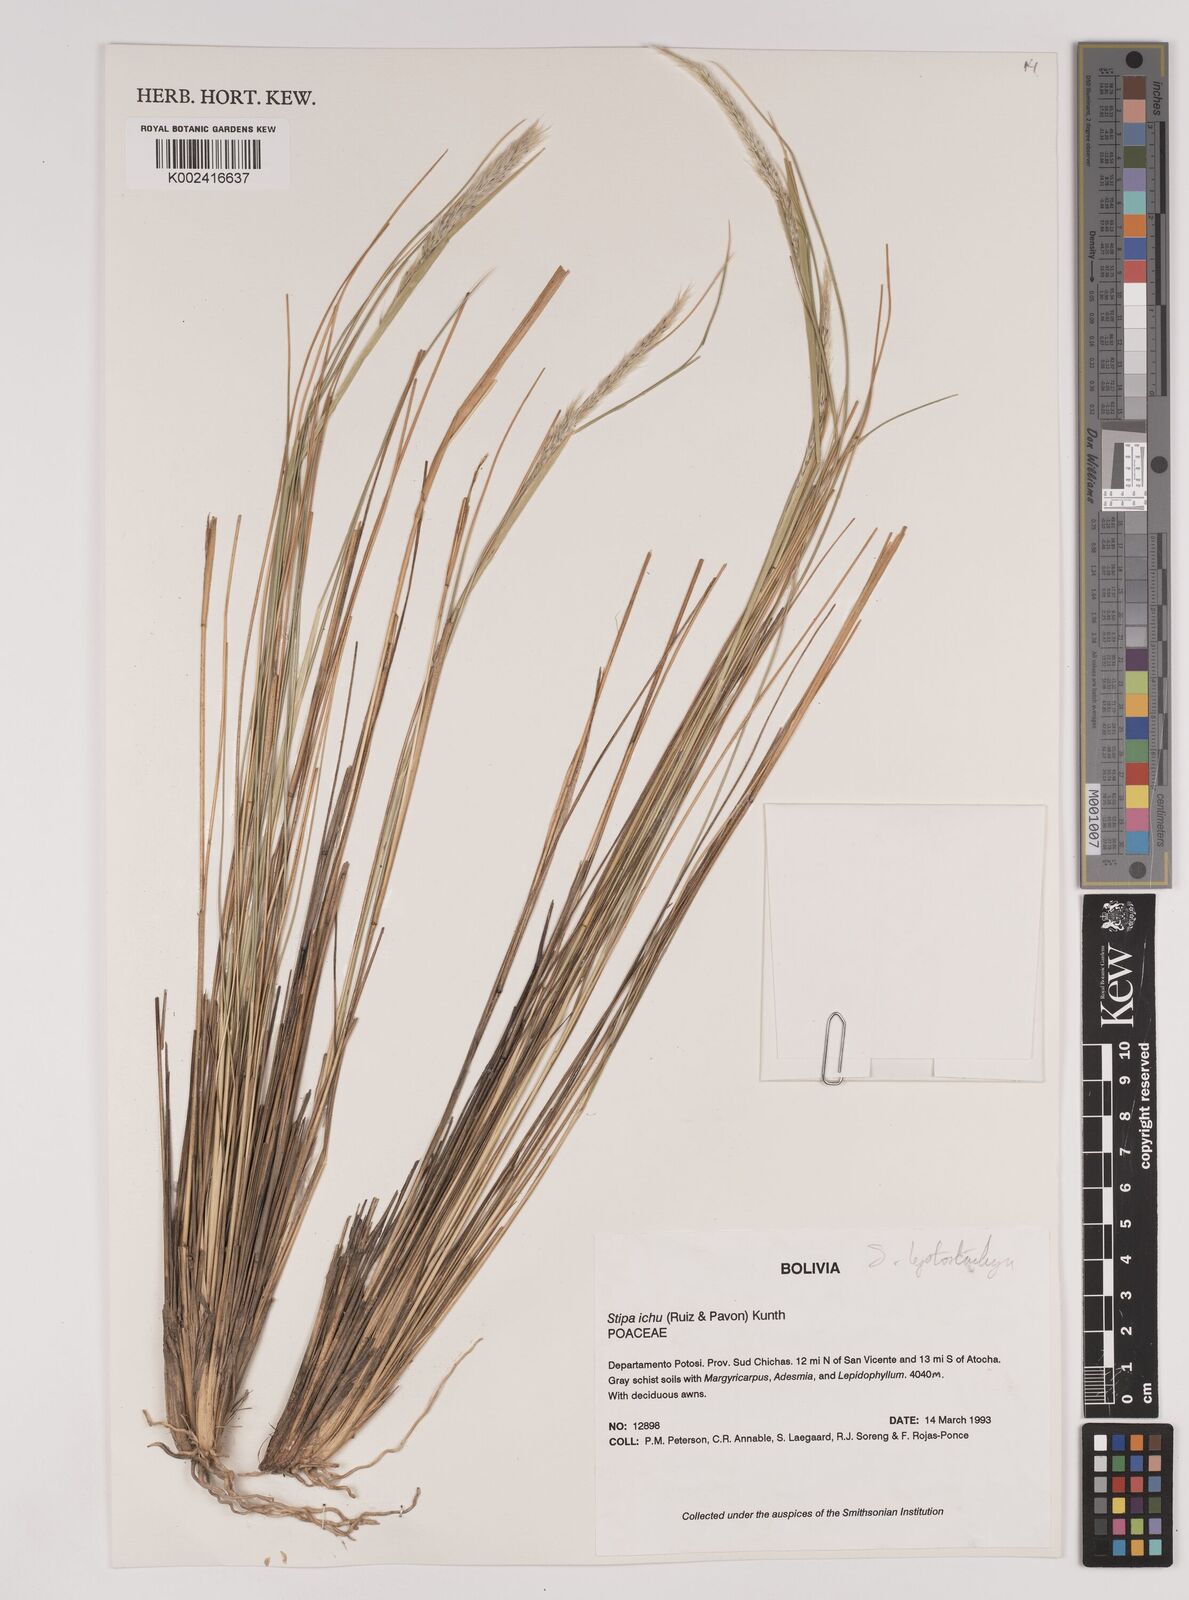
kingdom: Plantae
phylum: Tracheophyta
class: Liliopsida
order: Poales
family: Poaceae
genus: Jarava
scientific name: Jarava leptostachya
